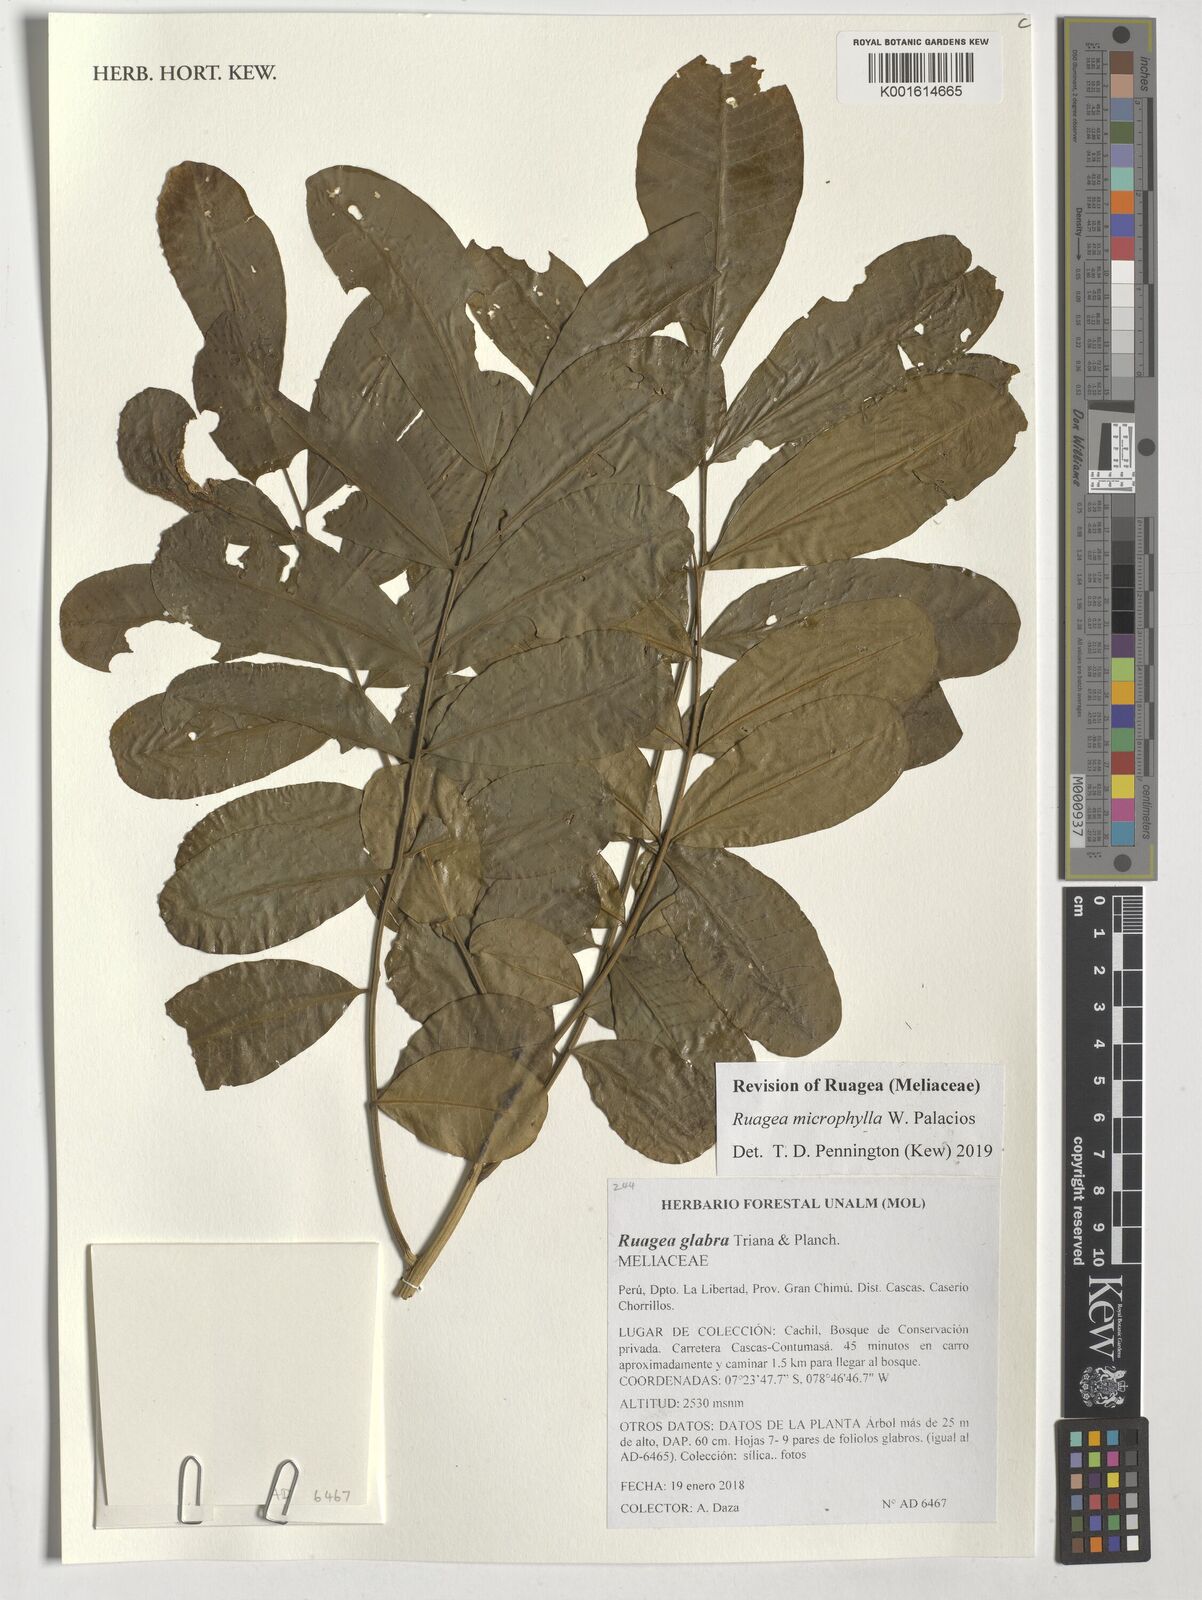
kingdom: Plantae
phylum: Tracheophyta
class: Magnoliopsida
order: Sapindales
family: Meliaceae
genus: Ruagea
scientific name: Ruagea microphylla
